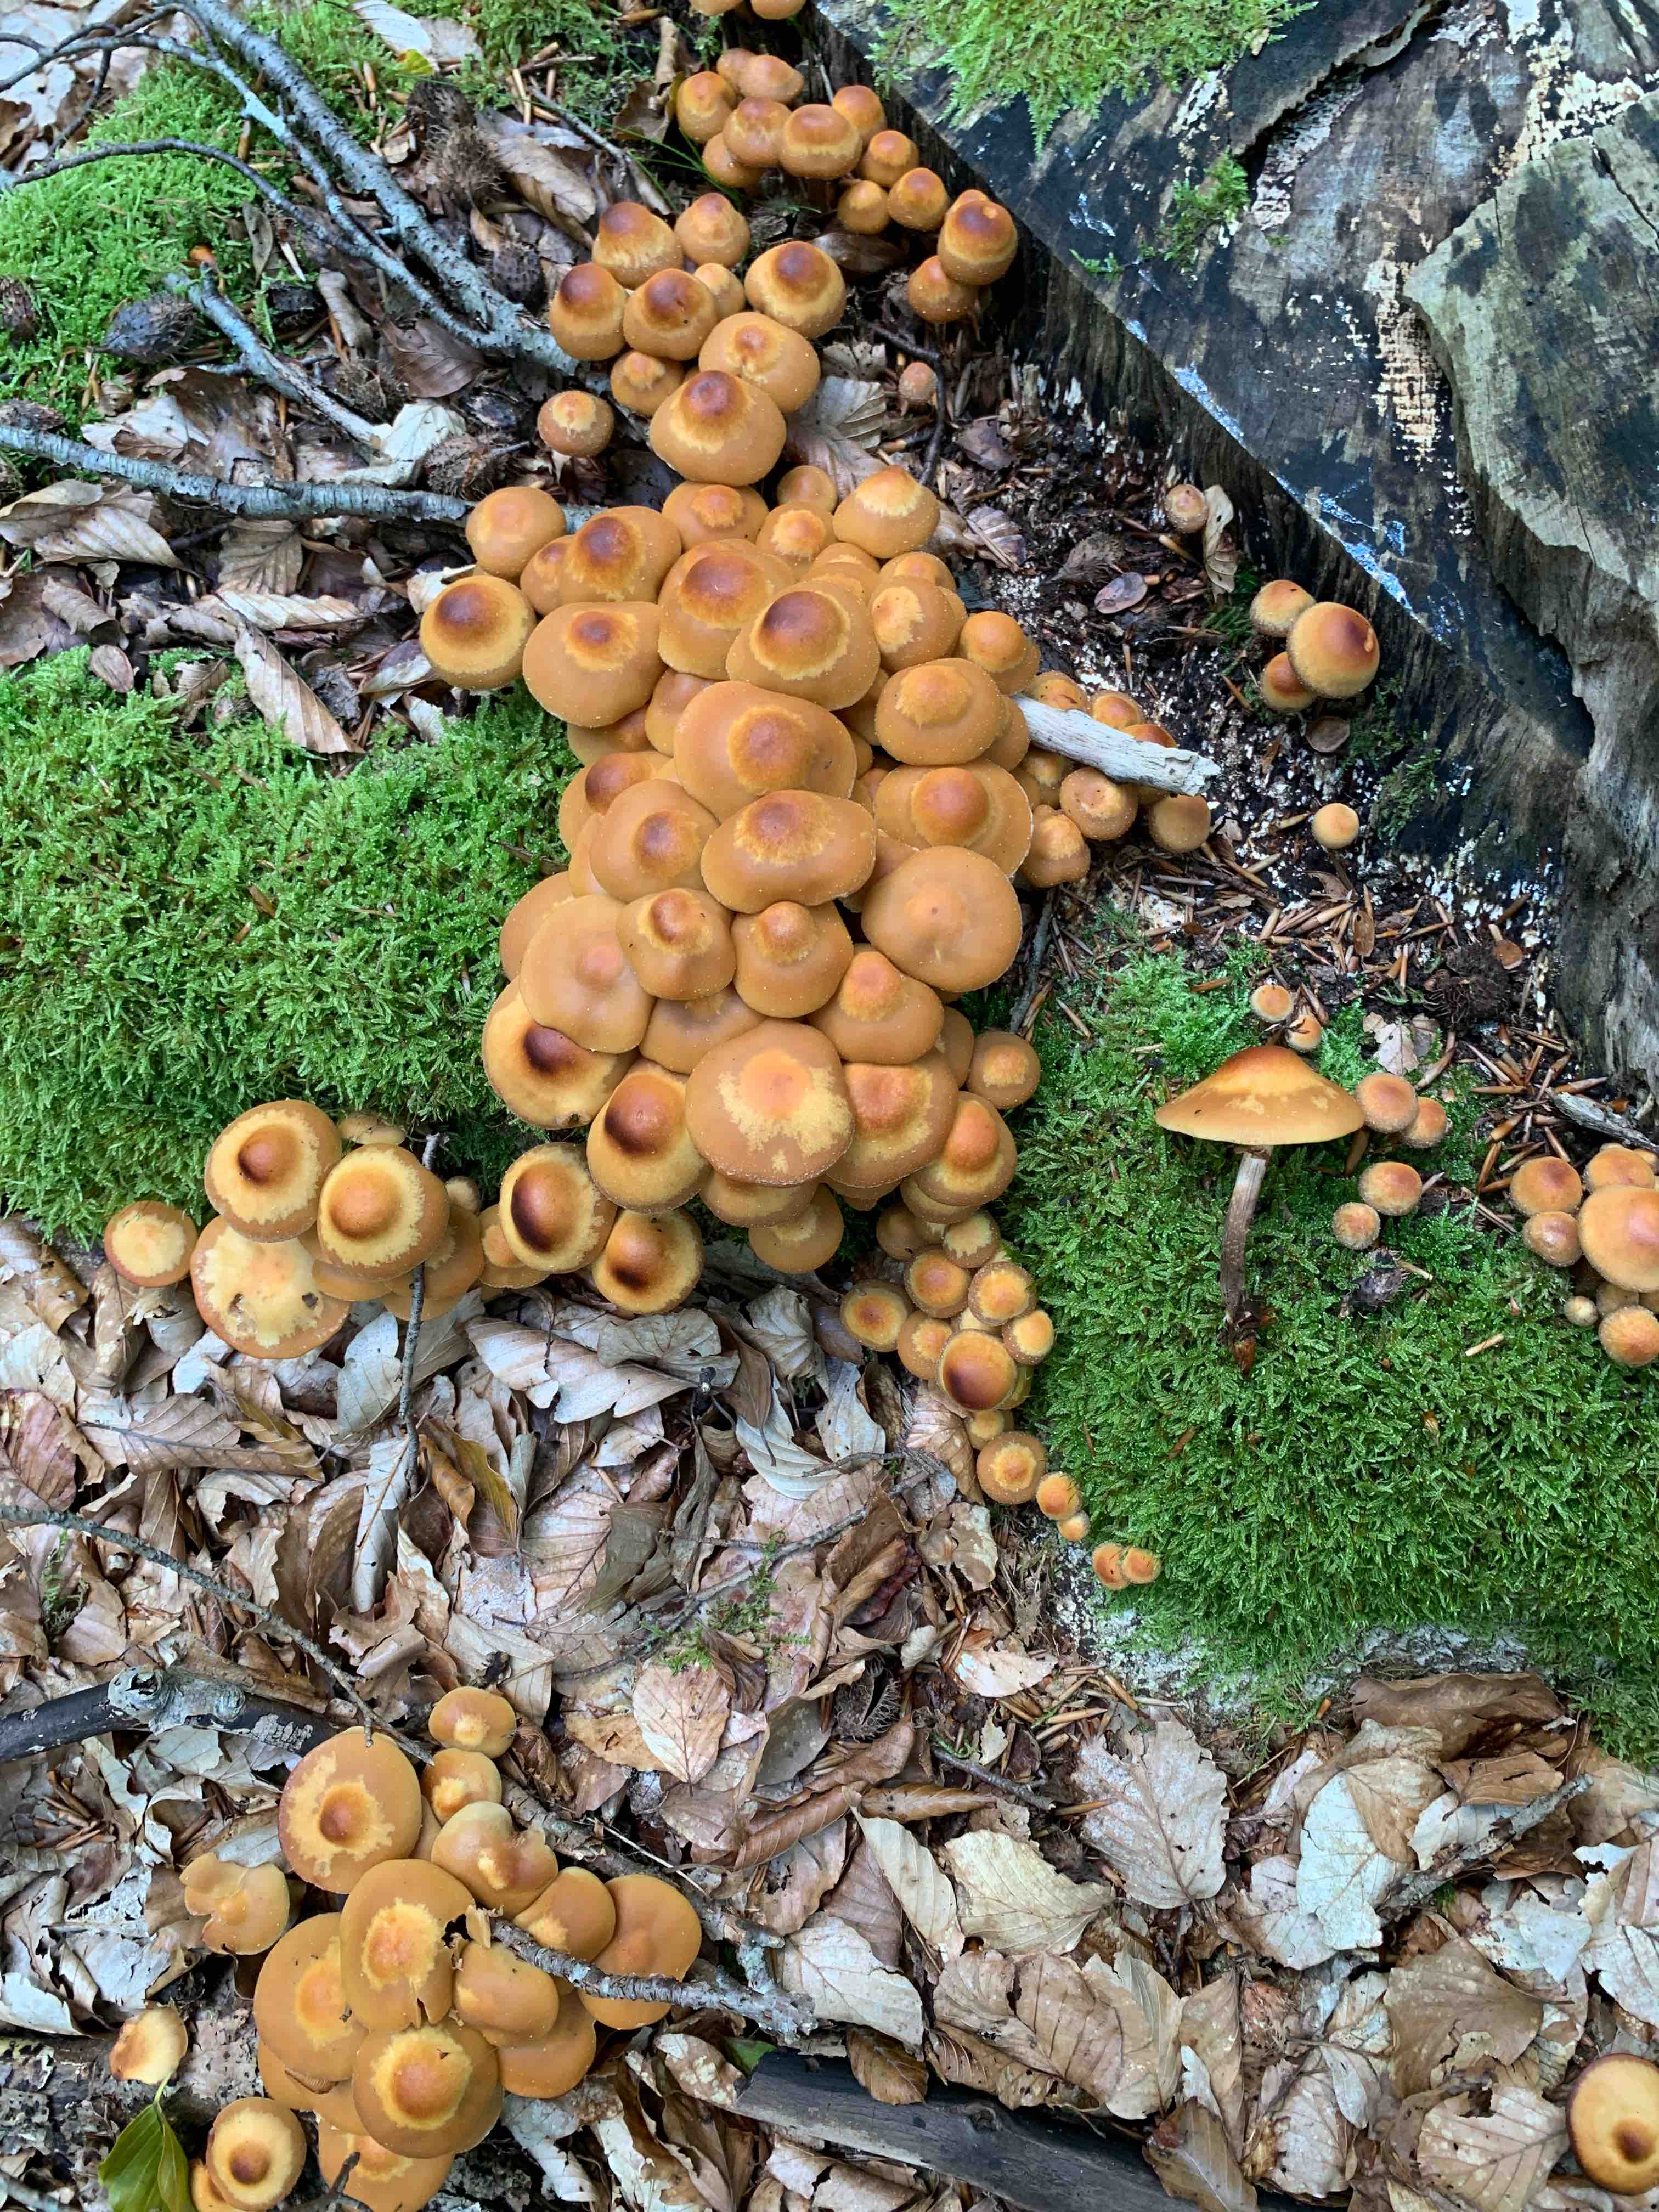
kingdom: Fungi
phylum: Basidiomycota
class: Agaricomycetes
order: Agaricales
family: Strophariaceae
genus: Kuehneromyces
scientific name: Kuehneromyces mutabilis
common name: foranderlig skælhat
